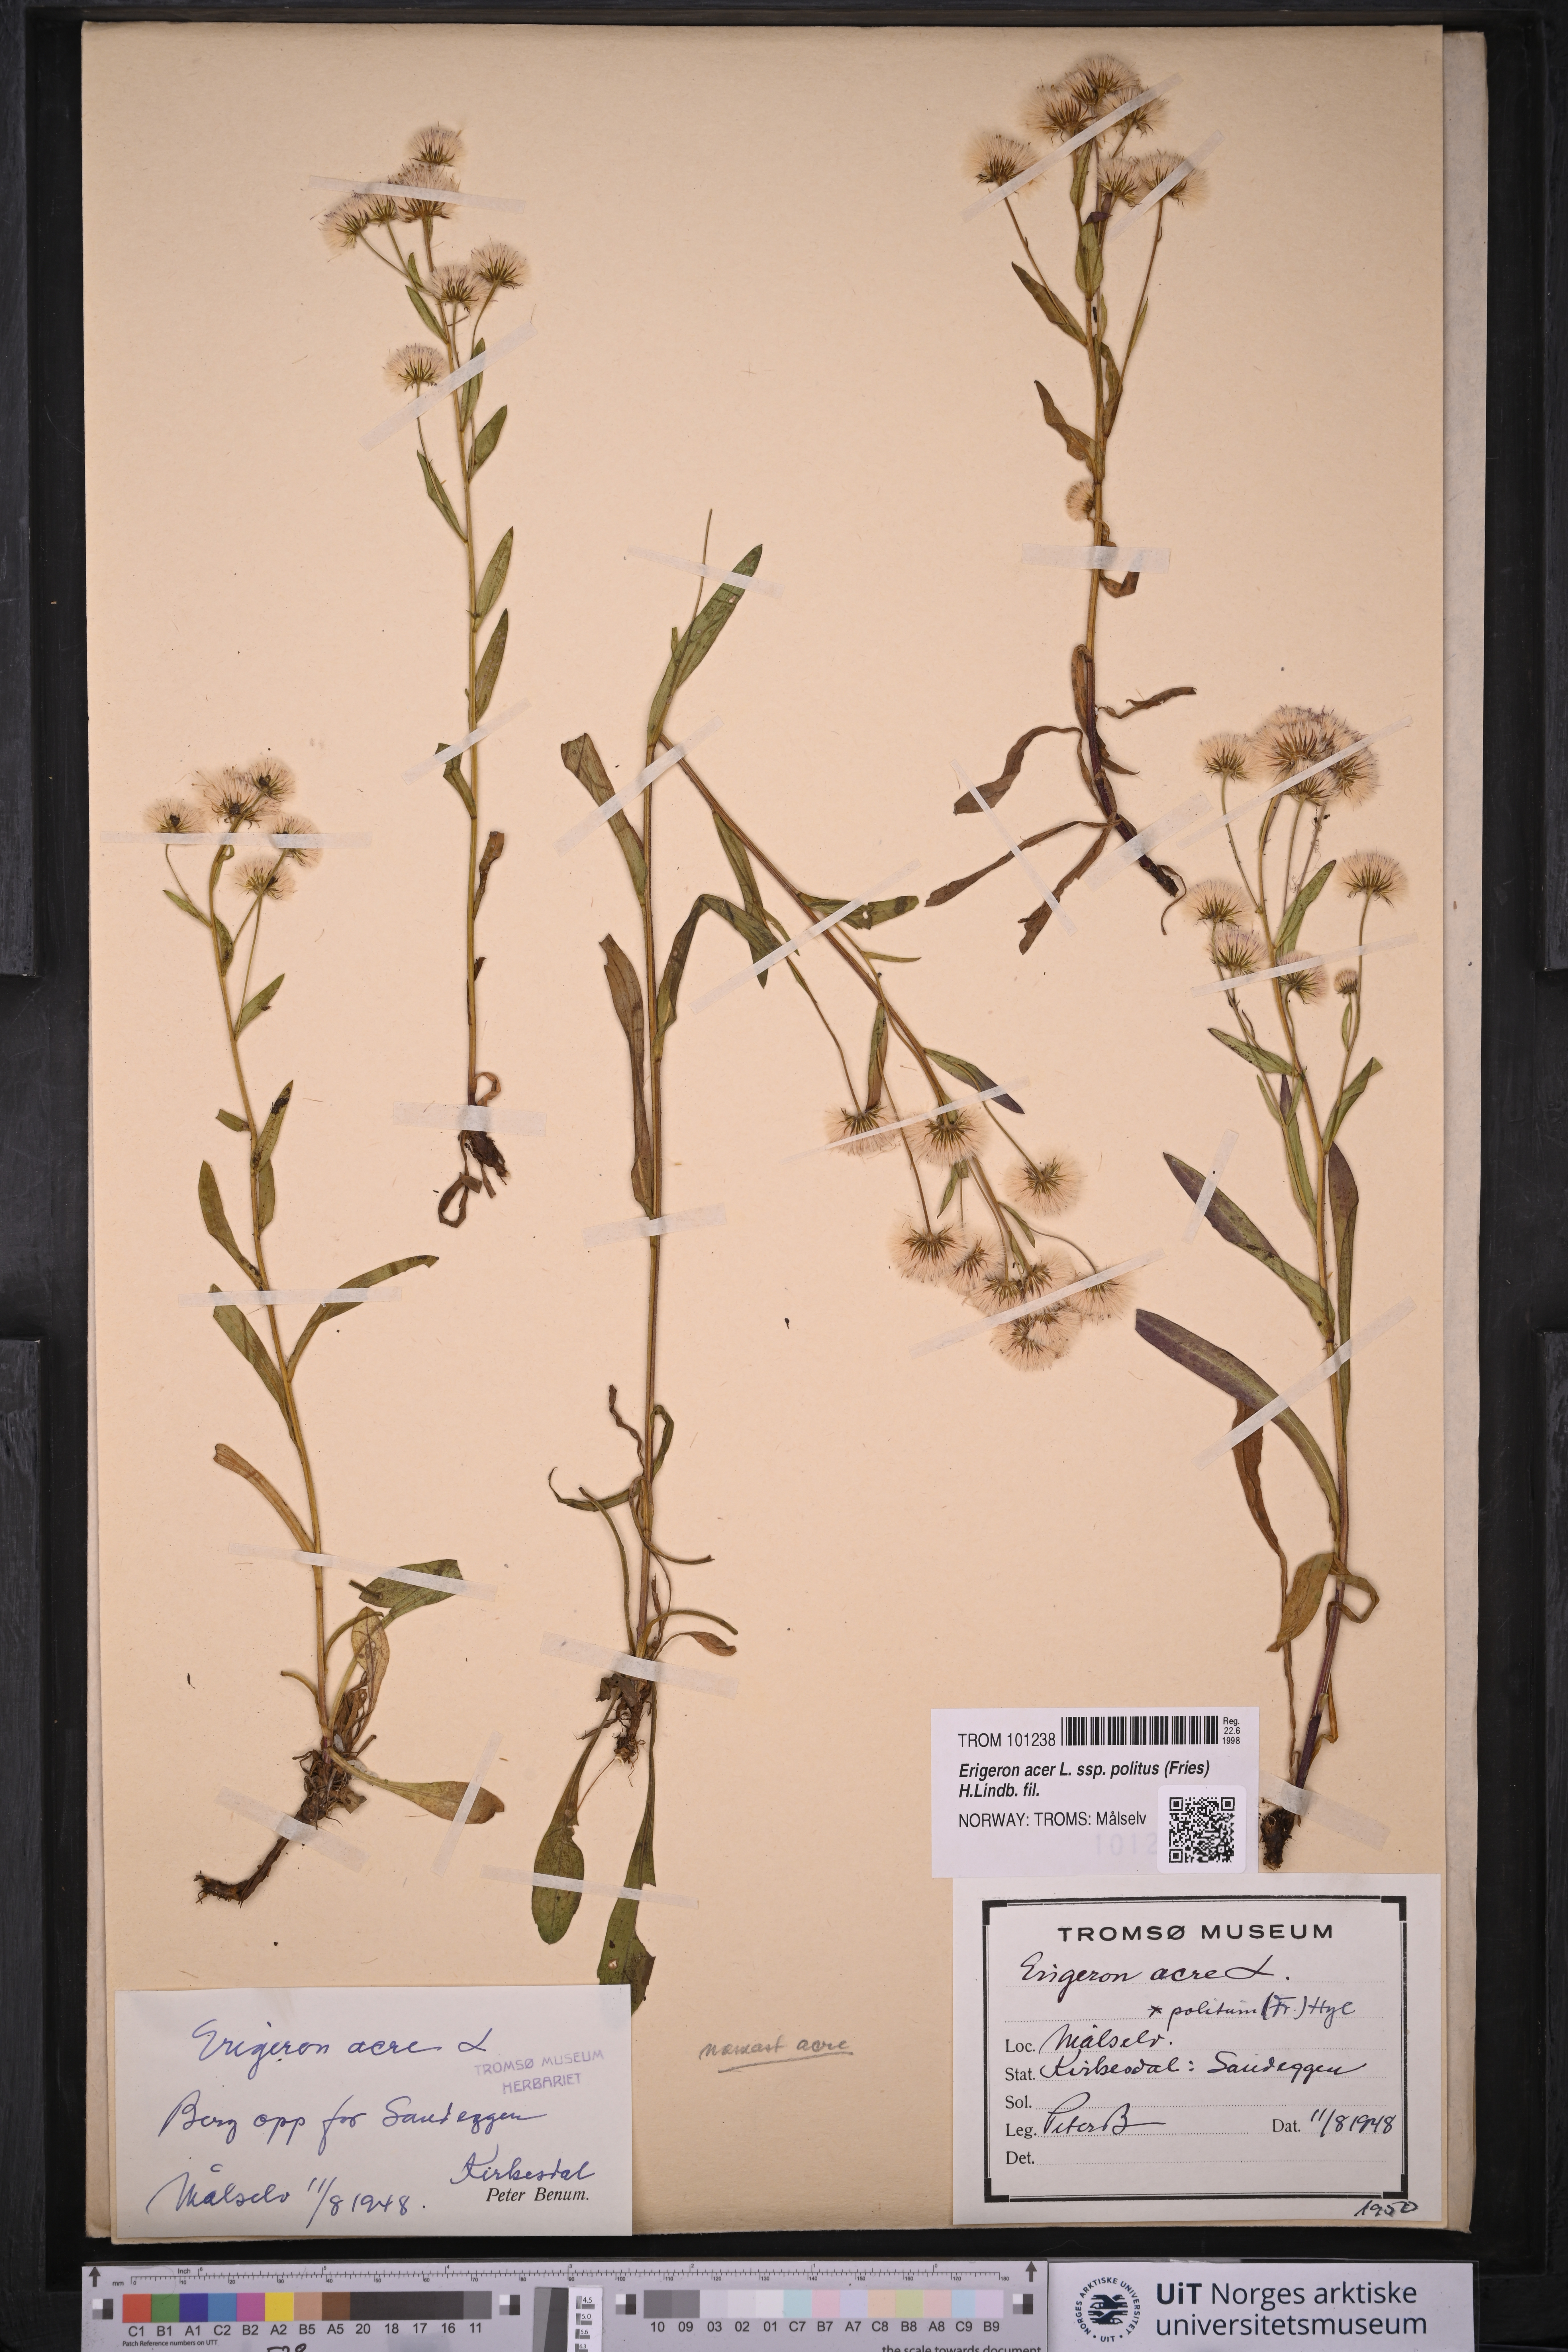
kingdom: Plantae
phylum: Tracheophyta
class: Magnoliopsida
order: Asterales
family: Asteraceae
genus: Erigeron
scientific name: Erigeron politus
